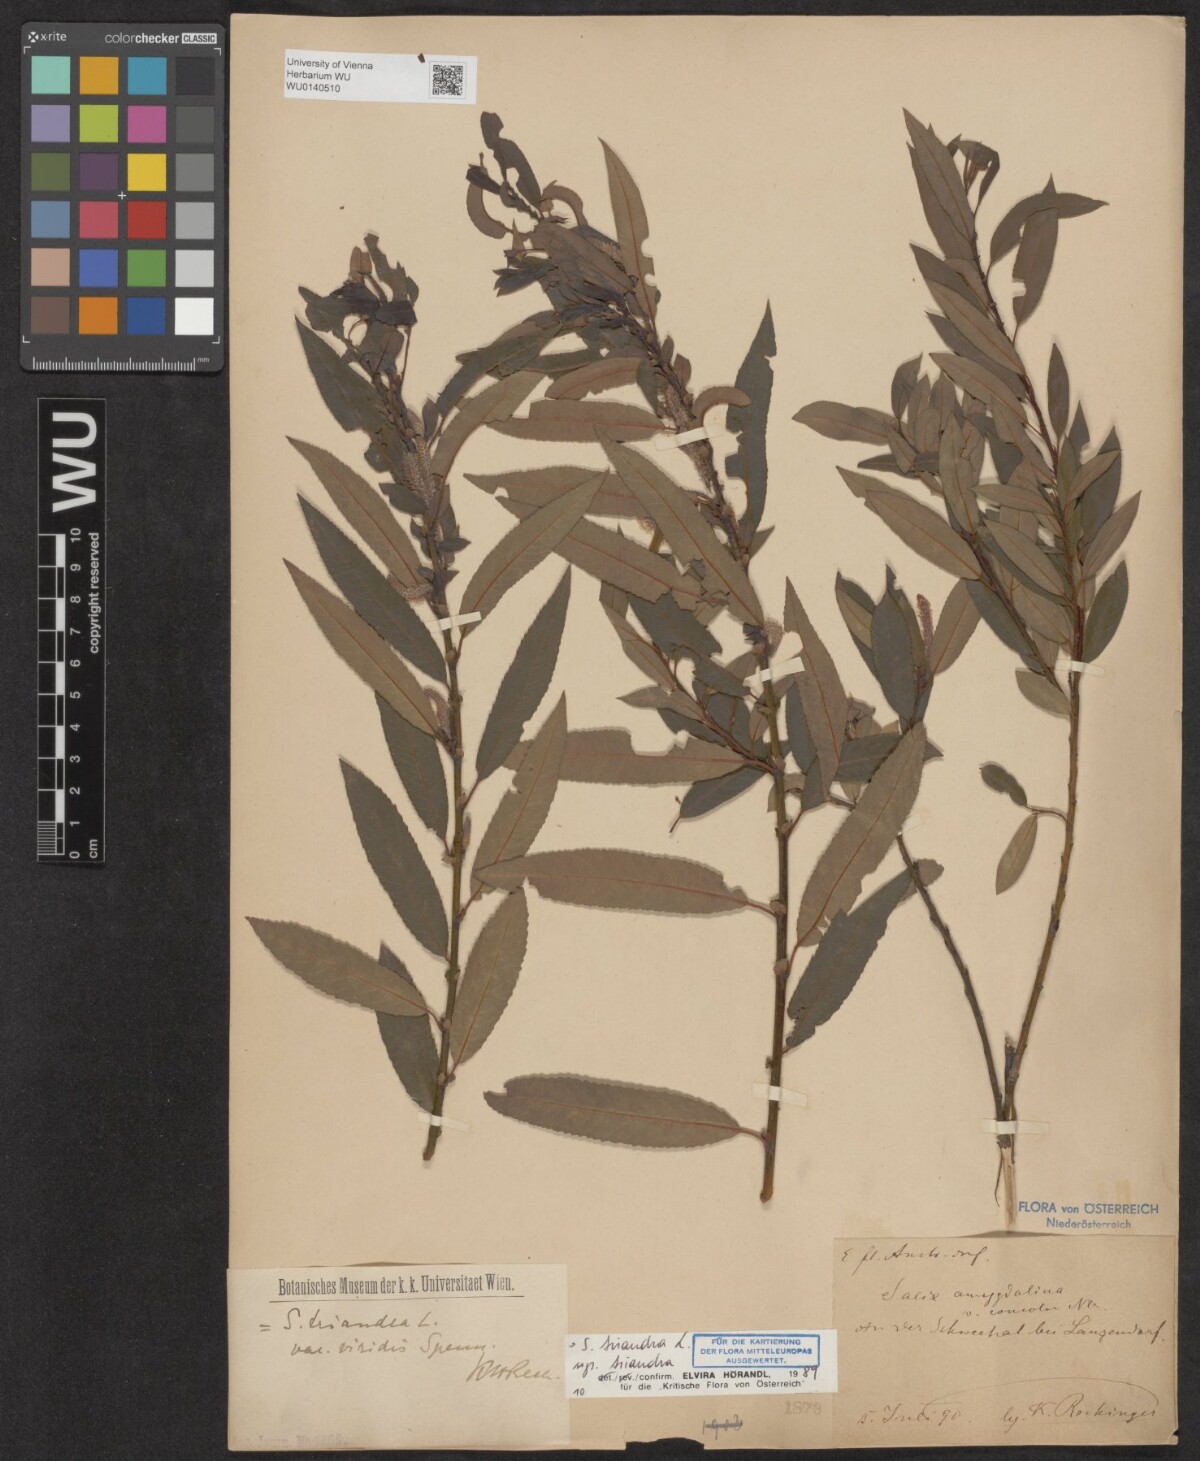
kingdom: Plantae
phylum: Tracheophyta
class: Magnoliopsida
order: Malpighiales
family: Salicaceae
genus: Salix
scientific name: Salix triandra
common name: Almond willow
